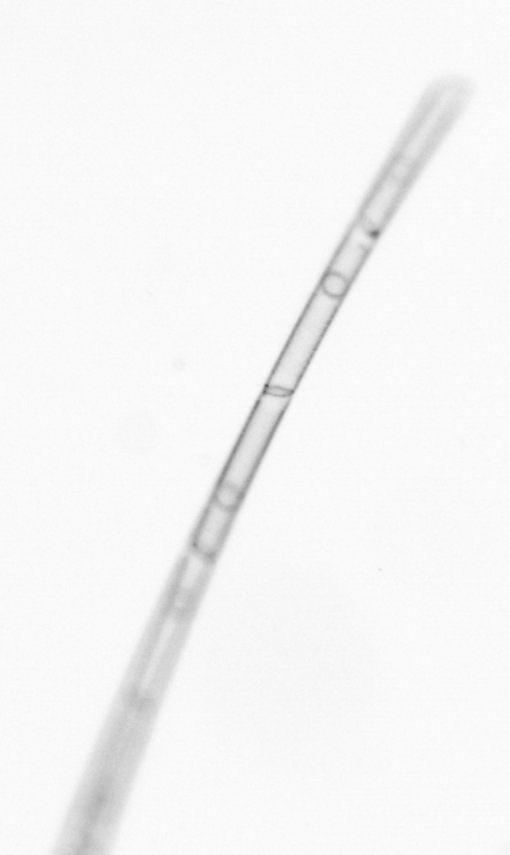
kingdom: Chromista
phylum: Ochrophyta
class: Bacillariophyceae
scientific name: Bacillariophyceae
